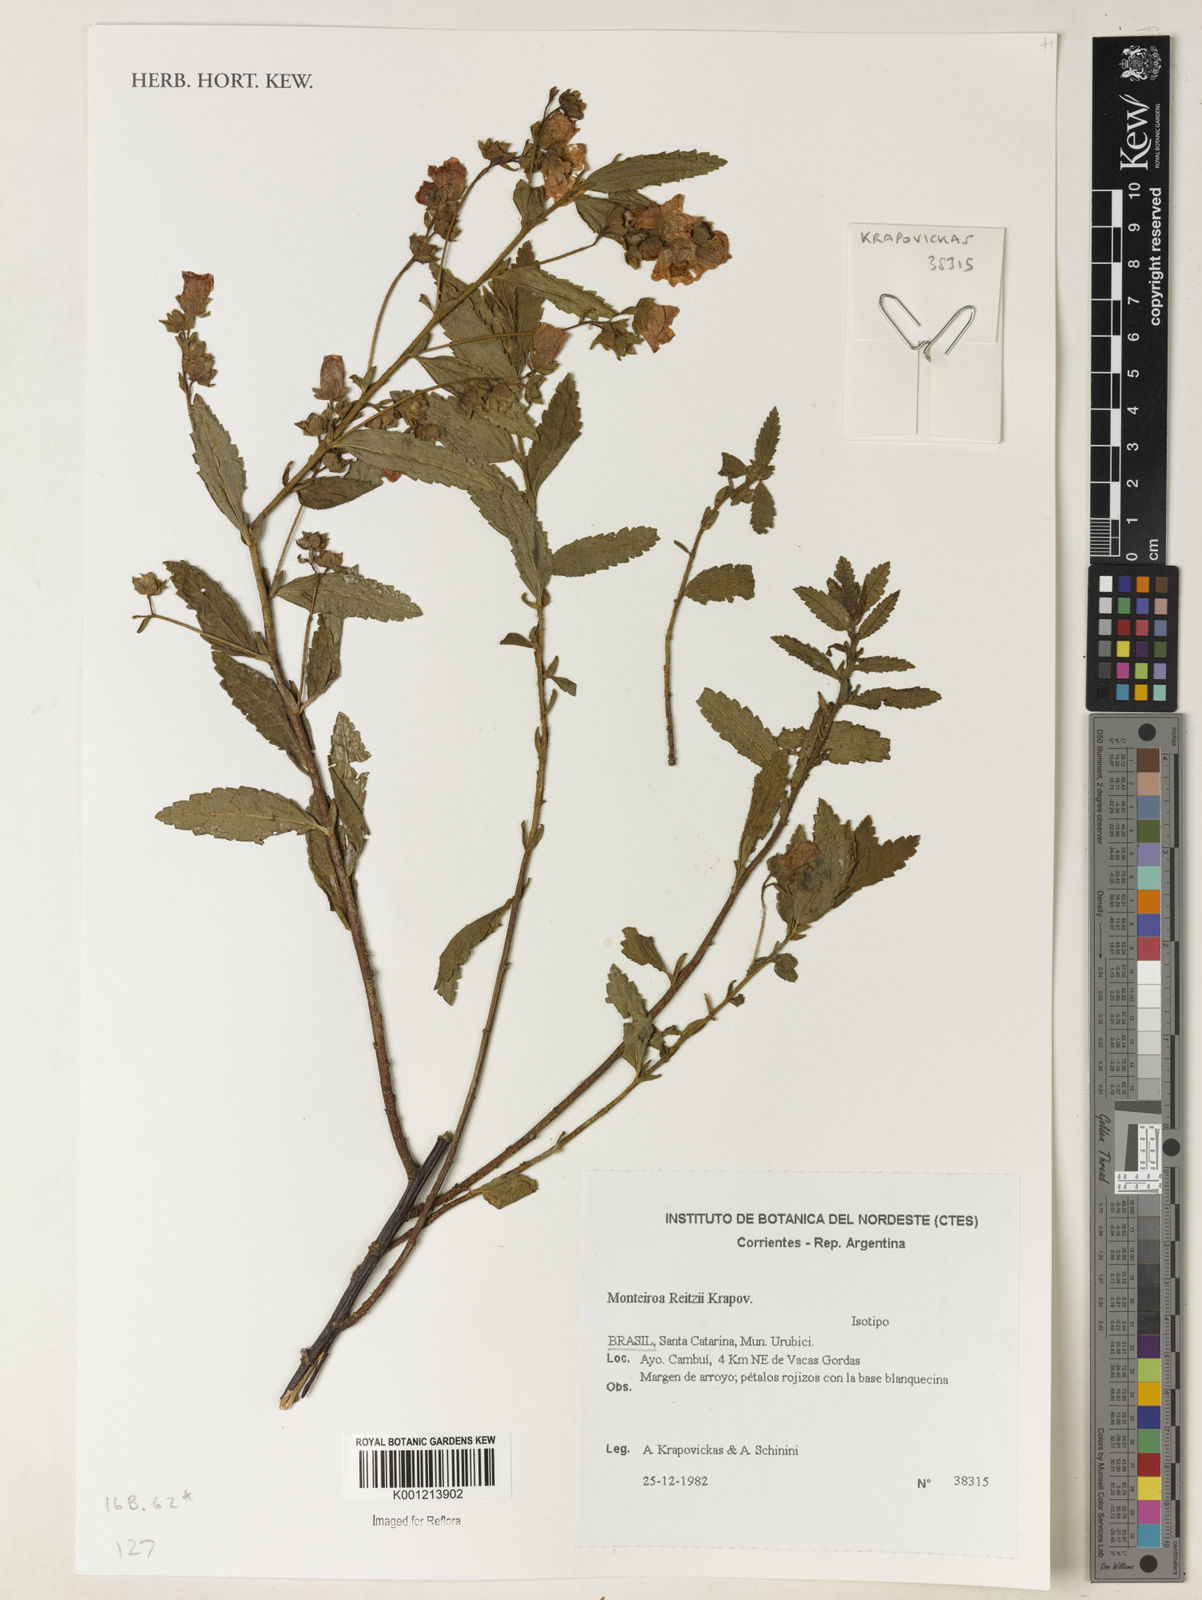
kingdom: Plantae
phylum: Tracheophyta
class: Magnoliopsida
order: Malvales
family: Malvaceae
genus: Monteiroa
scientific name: Monteiroa reitzii
